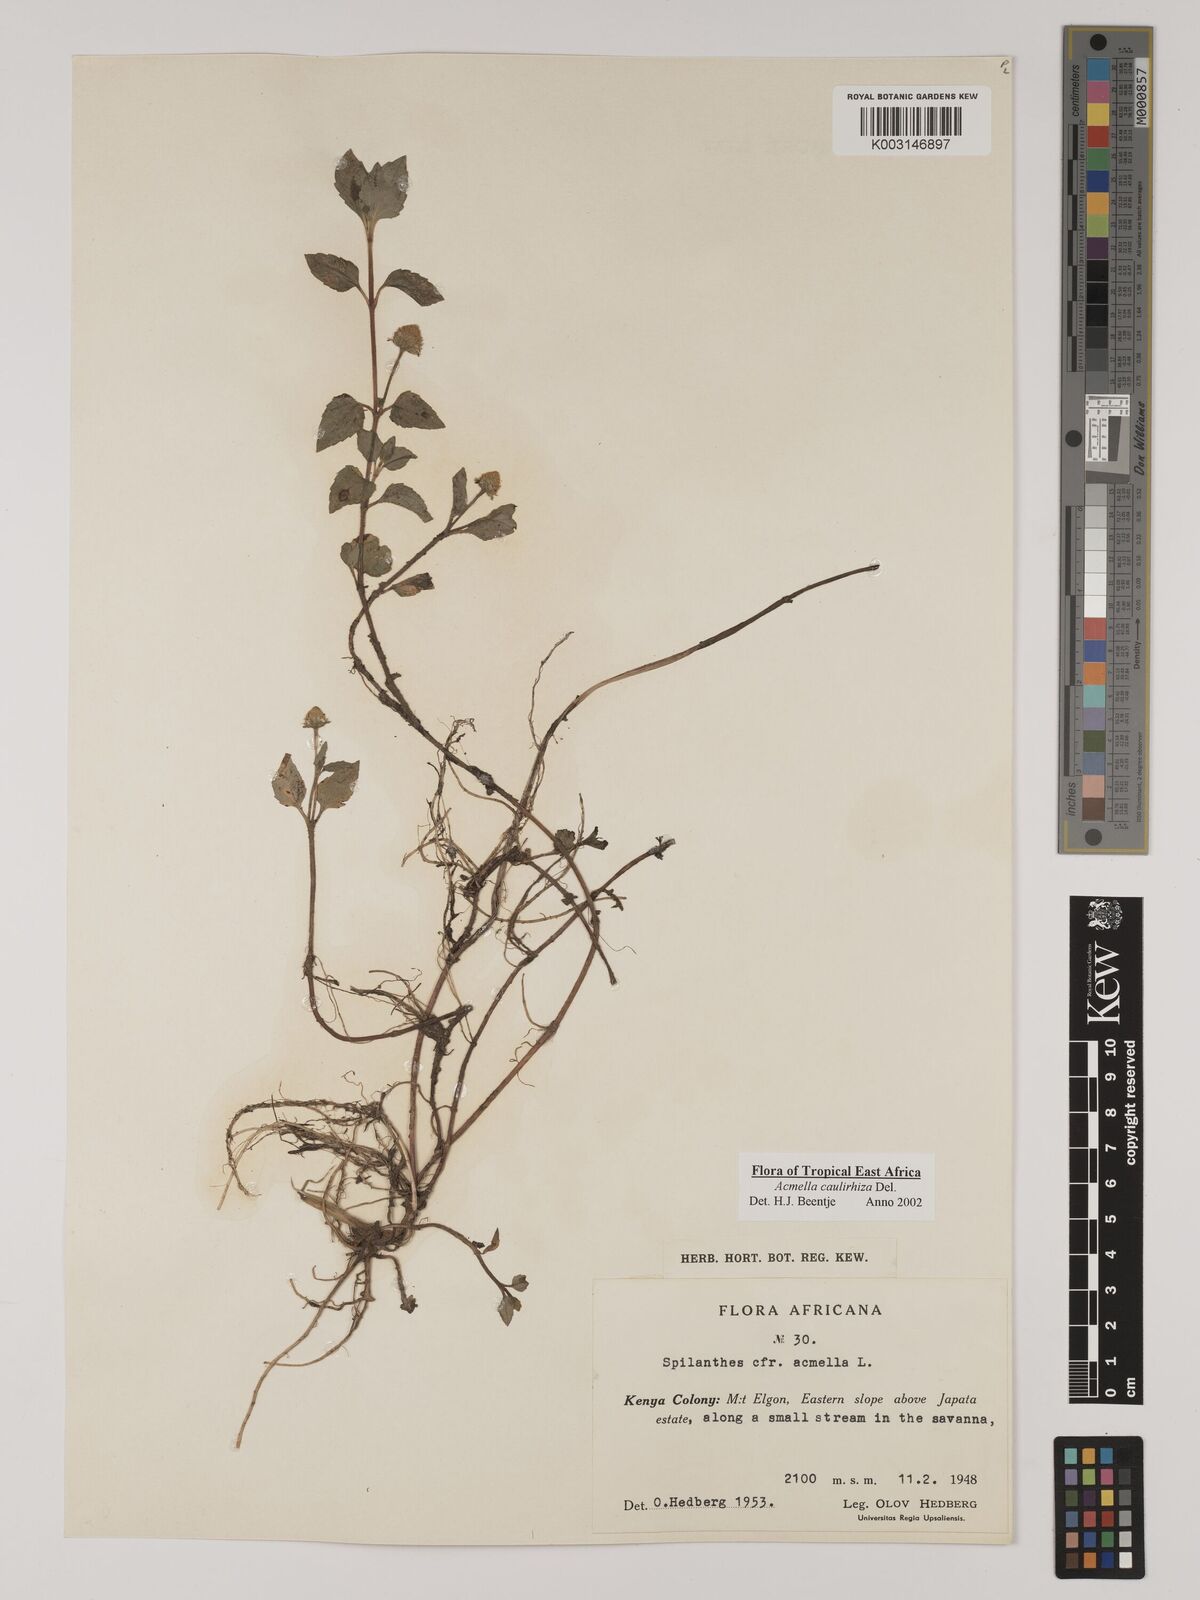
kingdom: Plantae
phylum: Tracheophyta
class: Magnoliopsida
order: Asterales
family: Asteraceae
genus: Acmella
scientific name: Acmella caulirhiza
